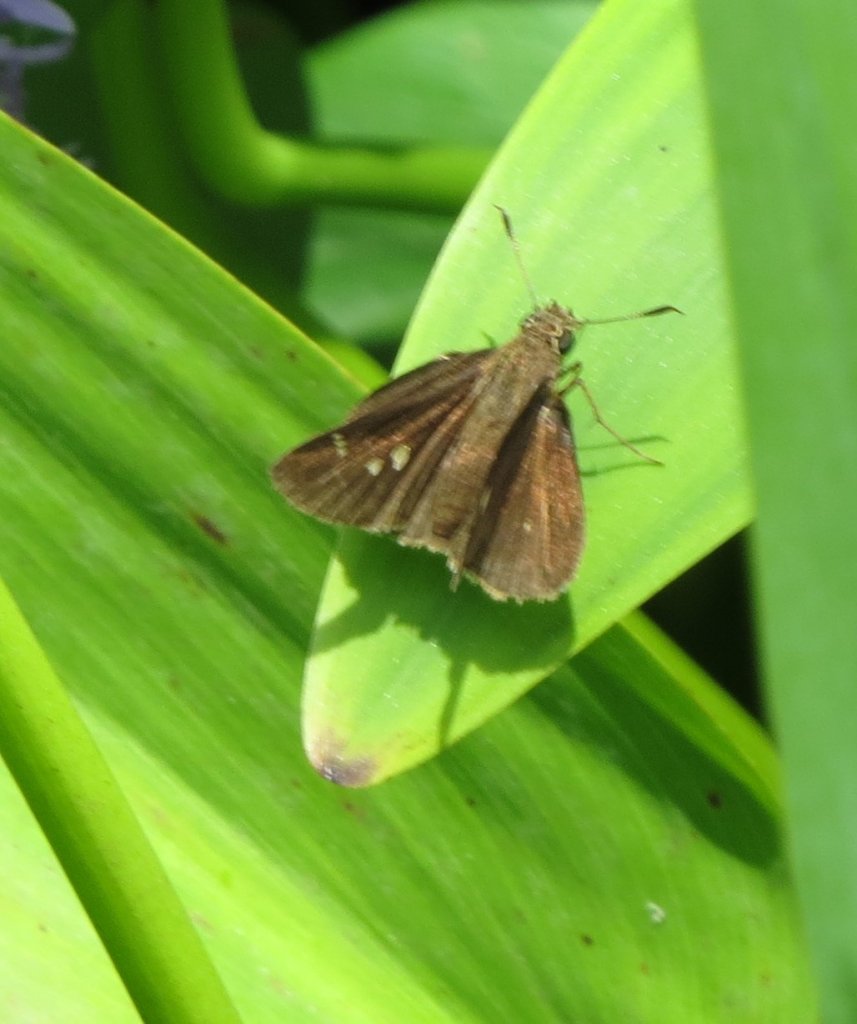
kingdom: Animalia
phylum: Arthropoda
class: Insecta
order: Lepidoptera
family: Hesperiidae
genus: Lerema
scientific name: Lerema accius
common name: Clouded Skipper
